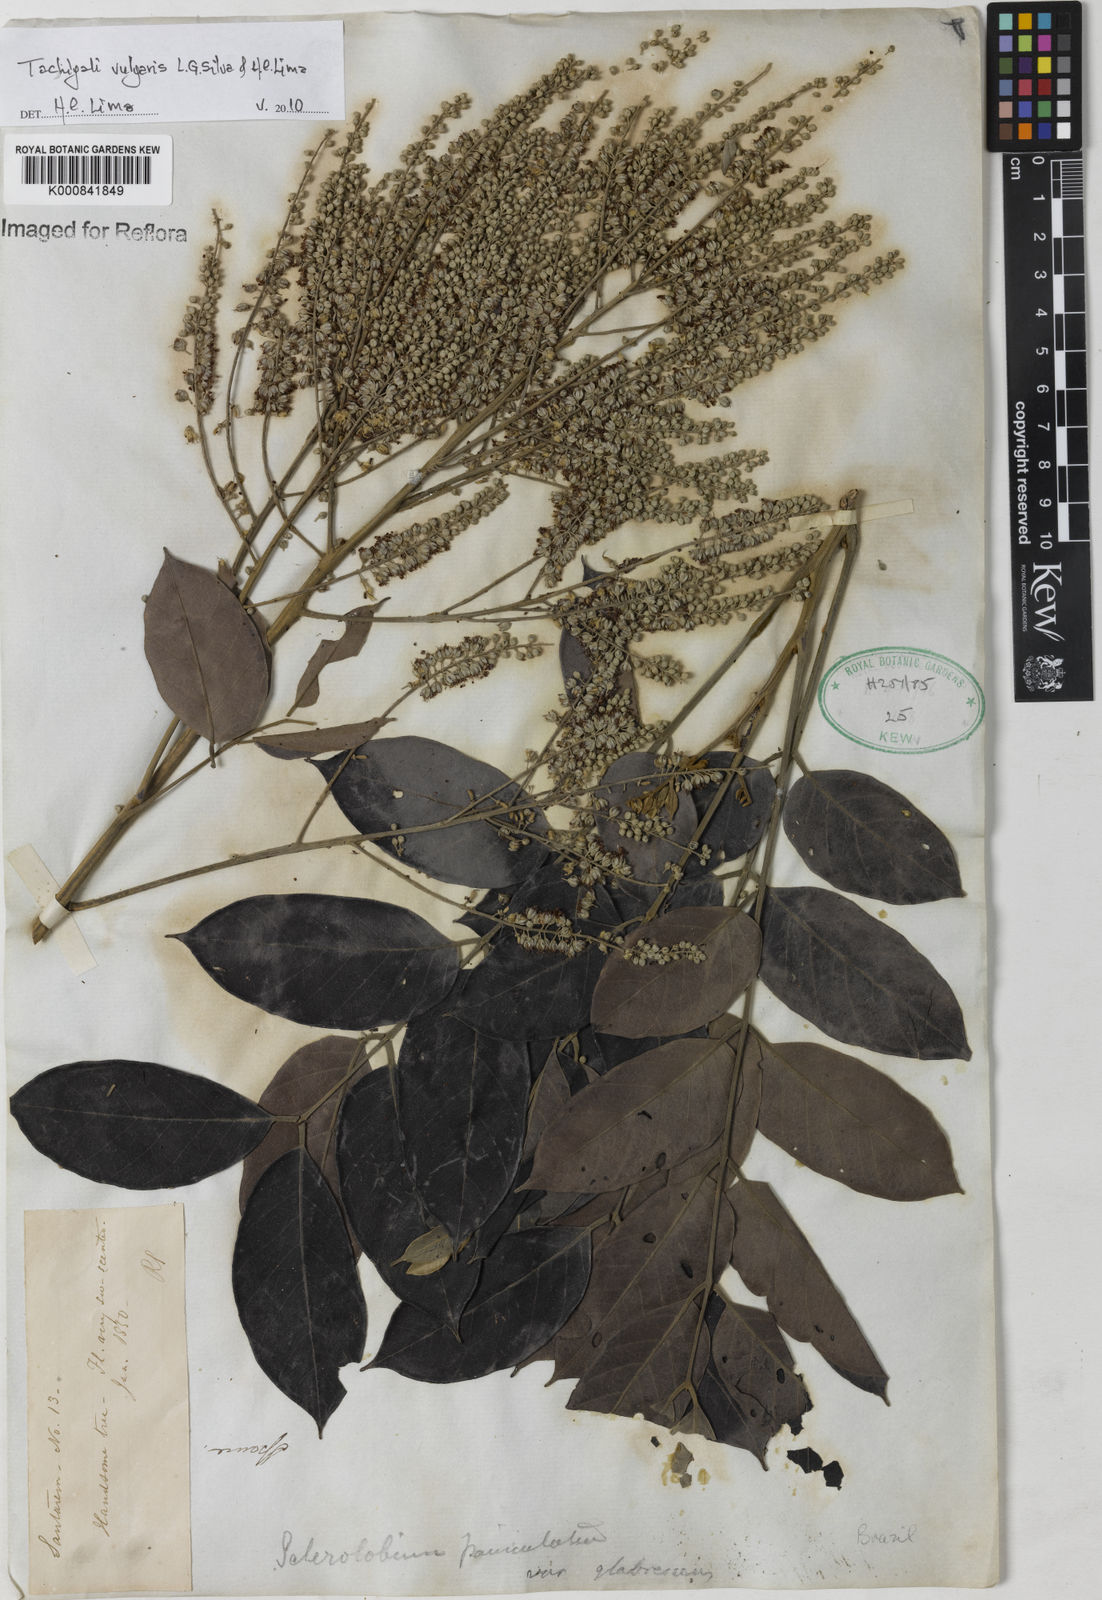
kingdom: Plantae
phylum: Tracheophyta
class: Magnoliopsida
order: Fabales
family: Fabaceae
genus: Tachigali
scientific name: Tachigali vulgaris
